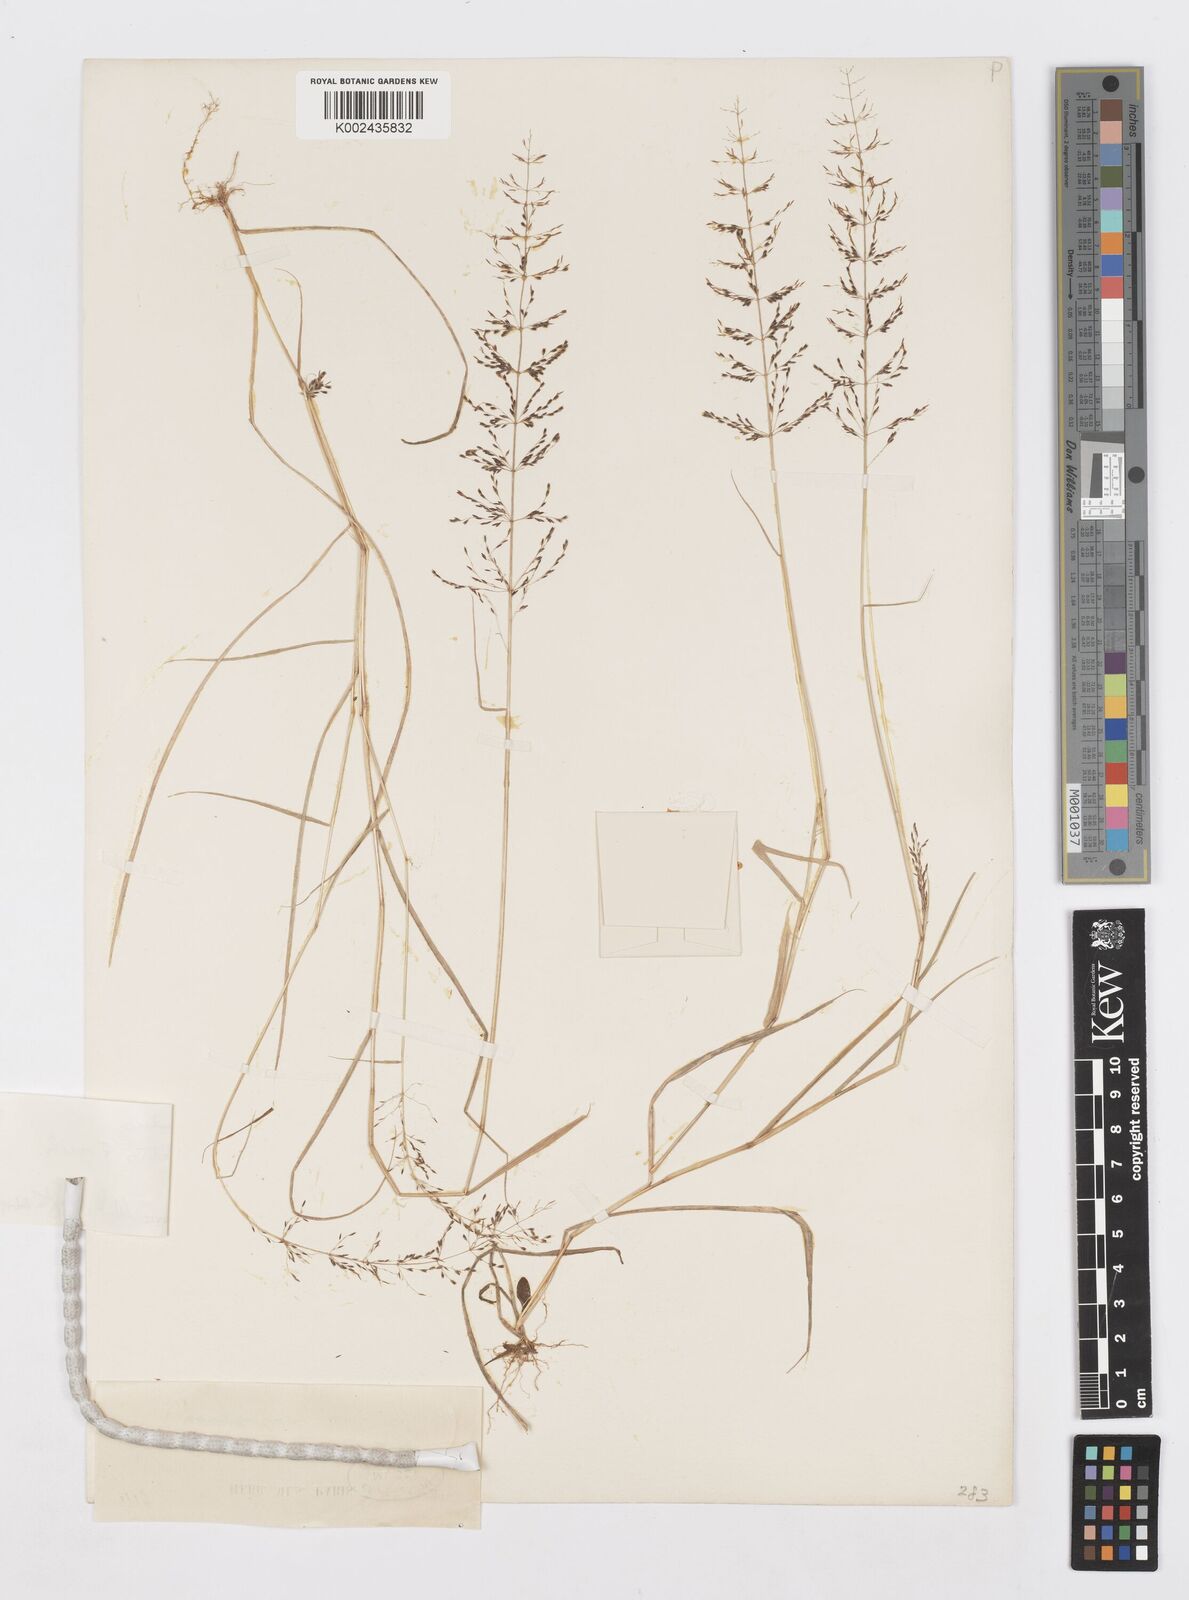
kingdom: Plantae
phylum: Tracheophyta
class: Liliopsida
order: Poales
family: Poaceae
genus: Sporobolus
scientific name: Sporobolus paniculatus
